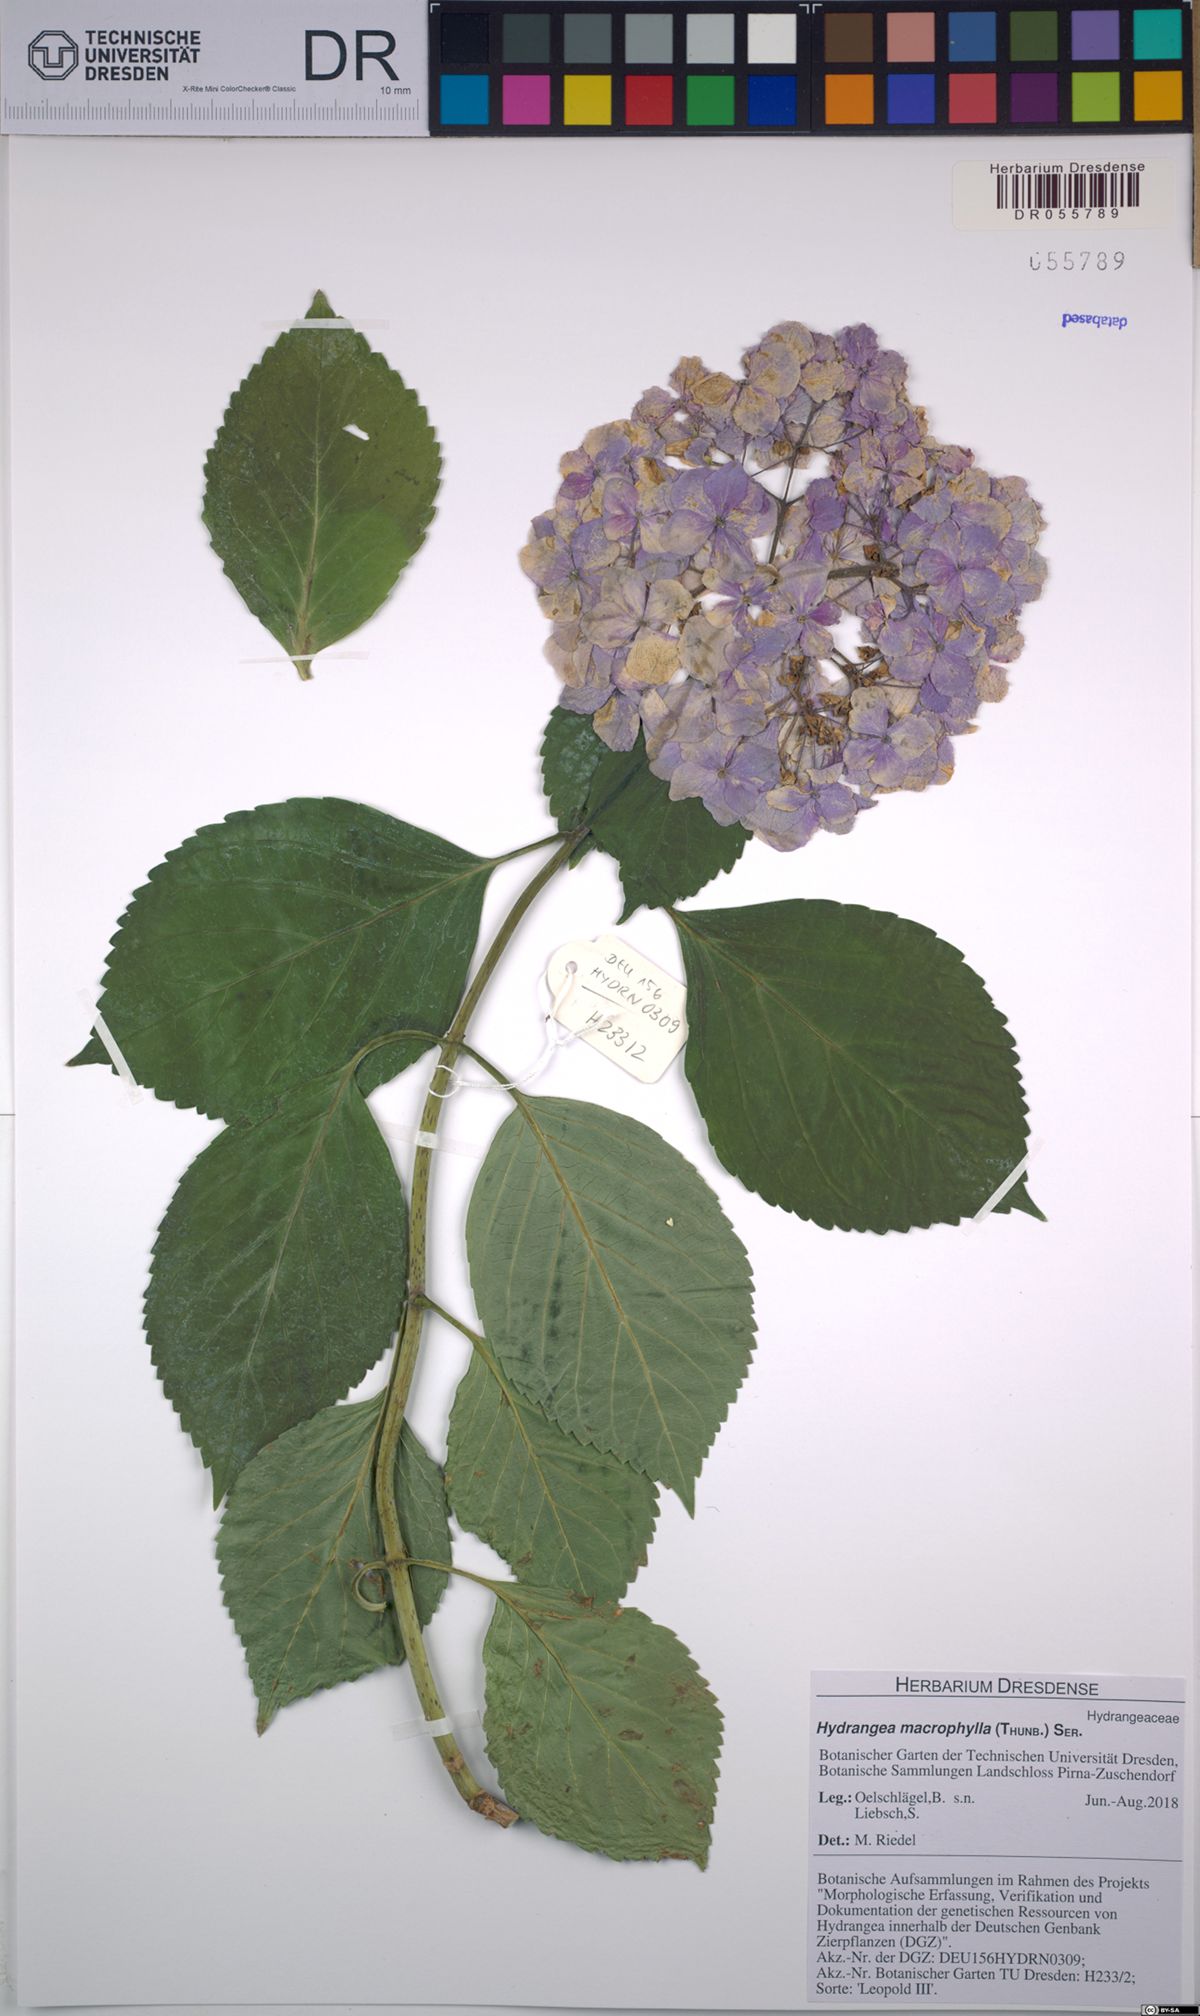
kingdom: Plantae
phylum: Tracheophyta
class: Magnoliopsida
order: Cornales
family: Hydrangeaceae
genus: Hydrangea
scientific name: Hydrangea macrophylla
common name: Hydrangea
